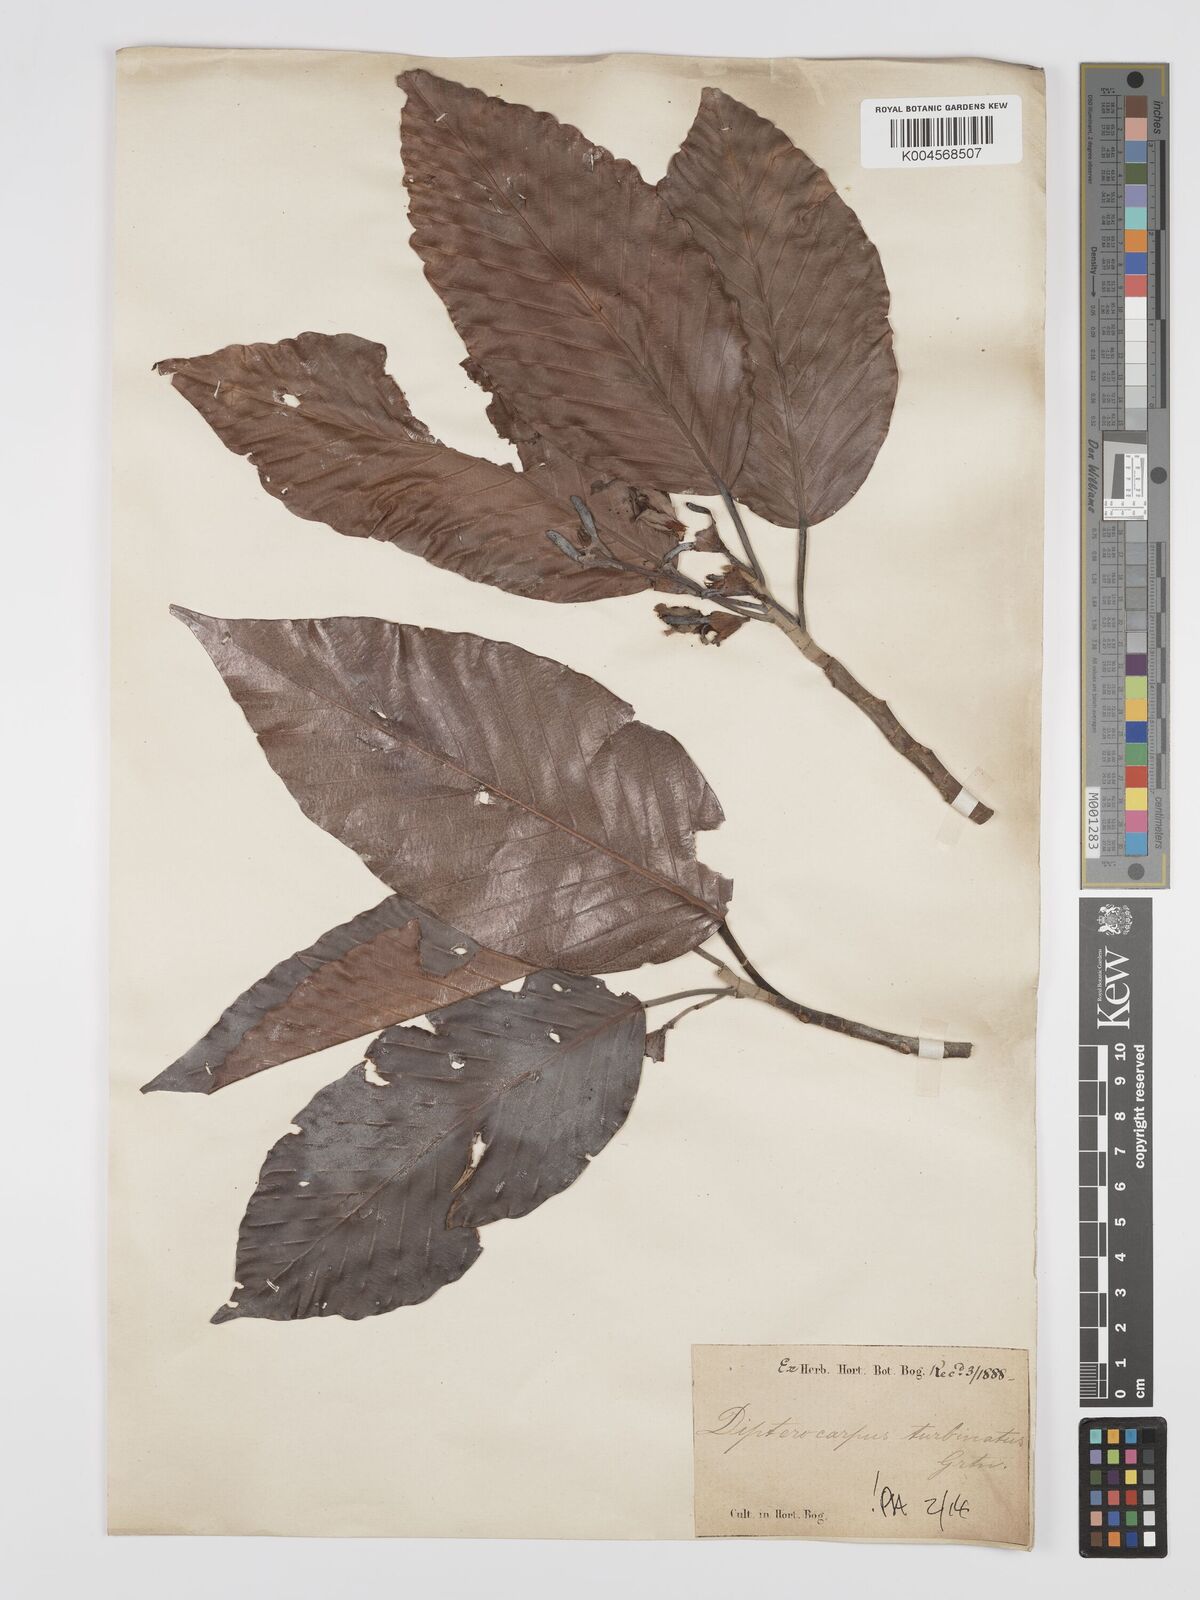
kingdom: Plantae
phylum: Tracheophyta
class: Magnoliopsida
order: Malvales
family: Dipterocarpaceae
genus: Dipterocarpus
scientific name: Dipterocarpus turbinatus
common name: East indian copaiba balsam
